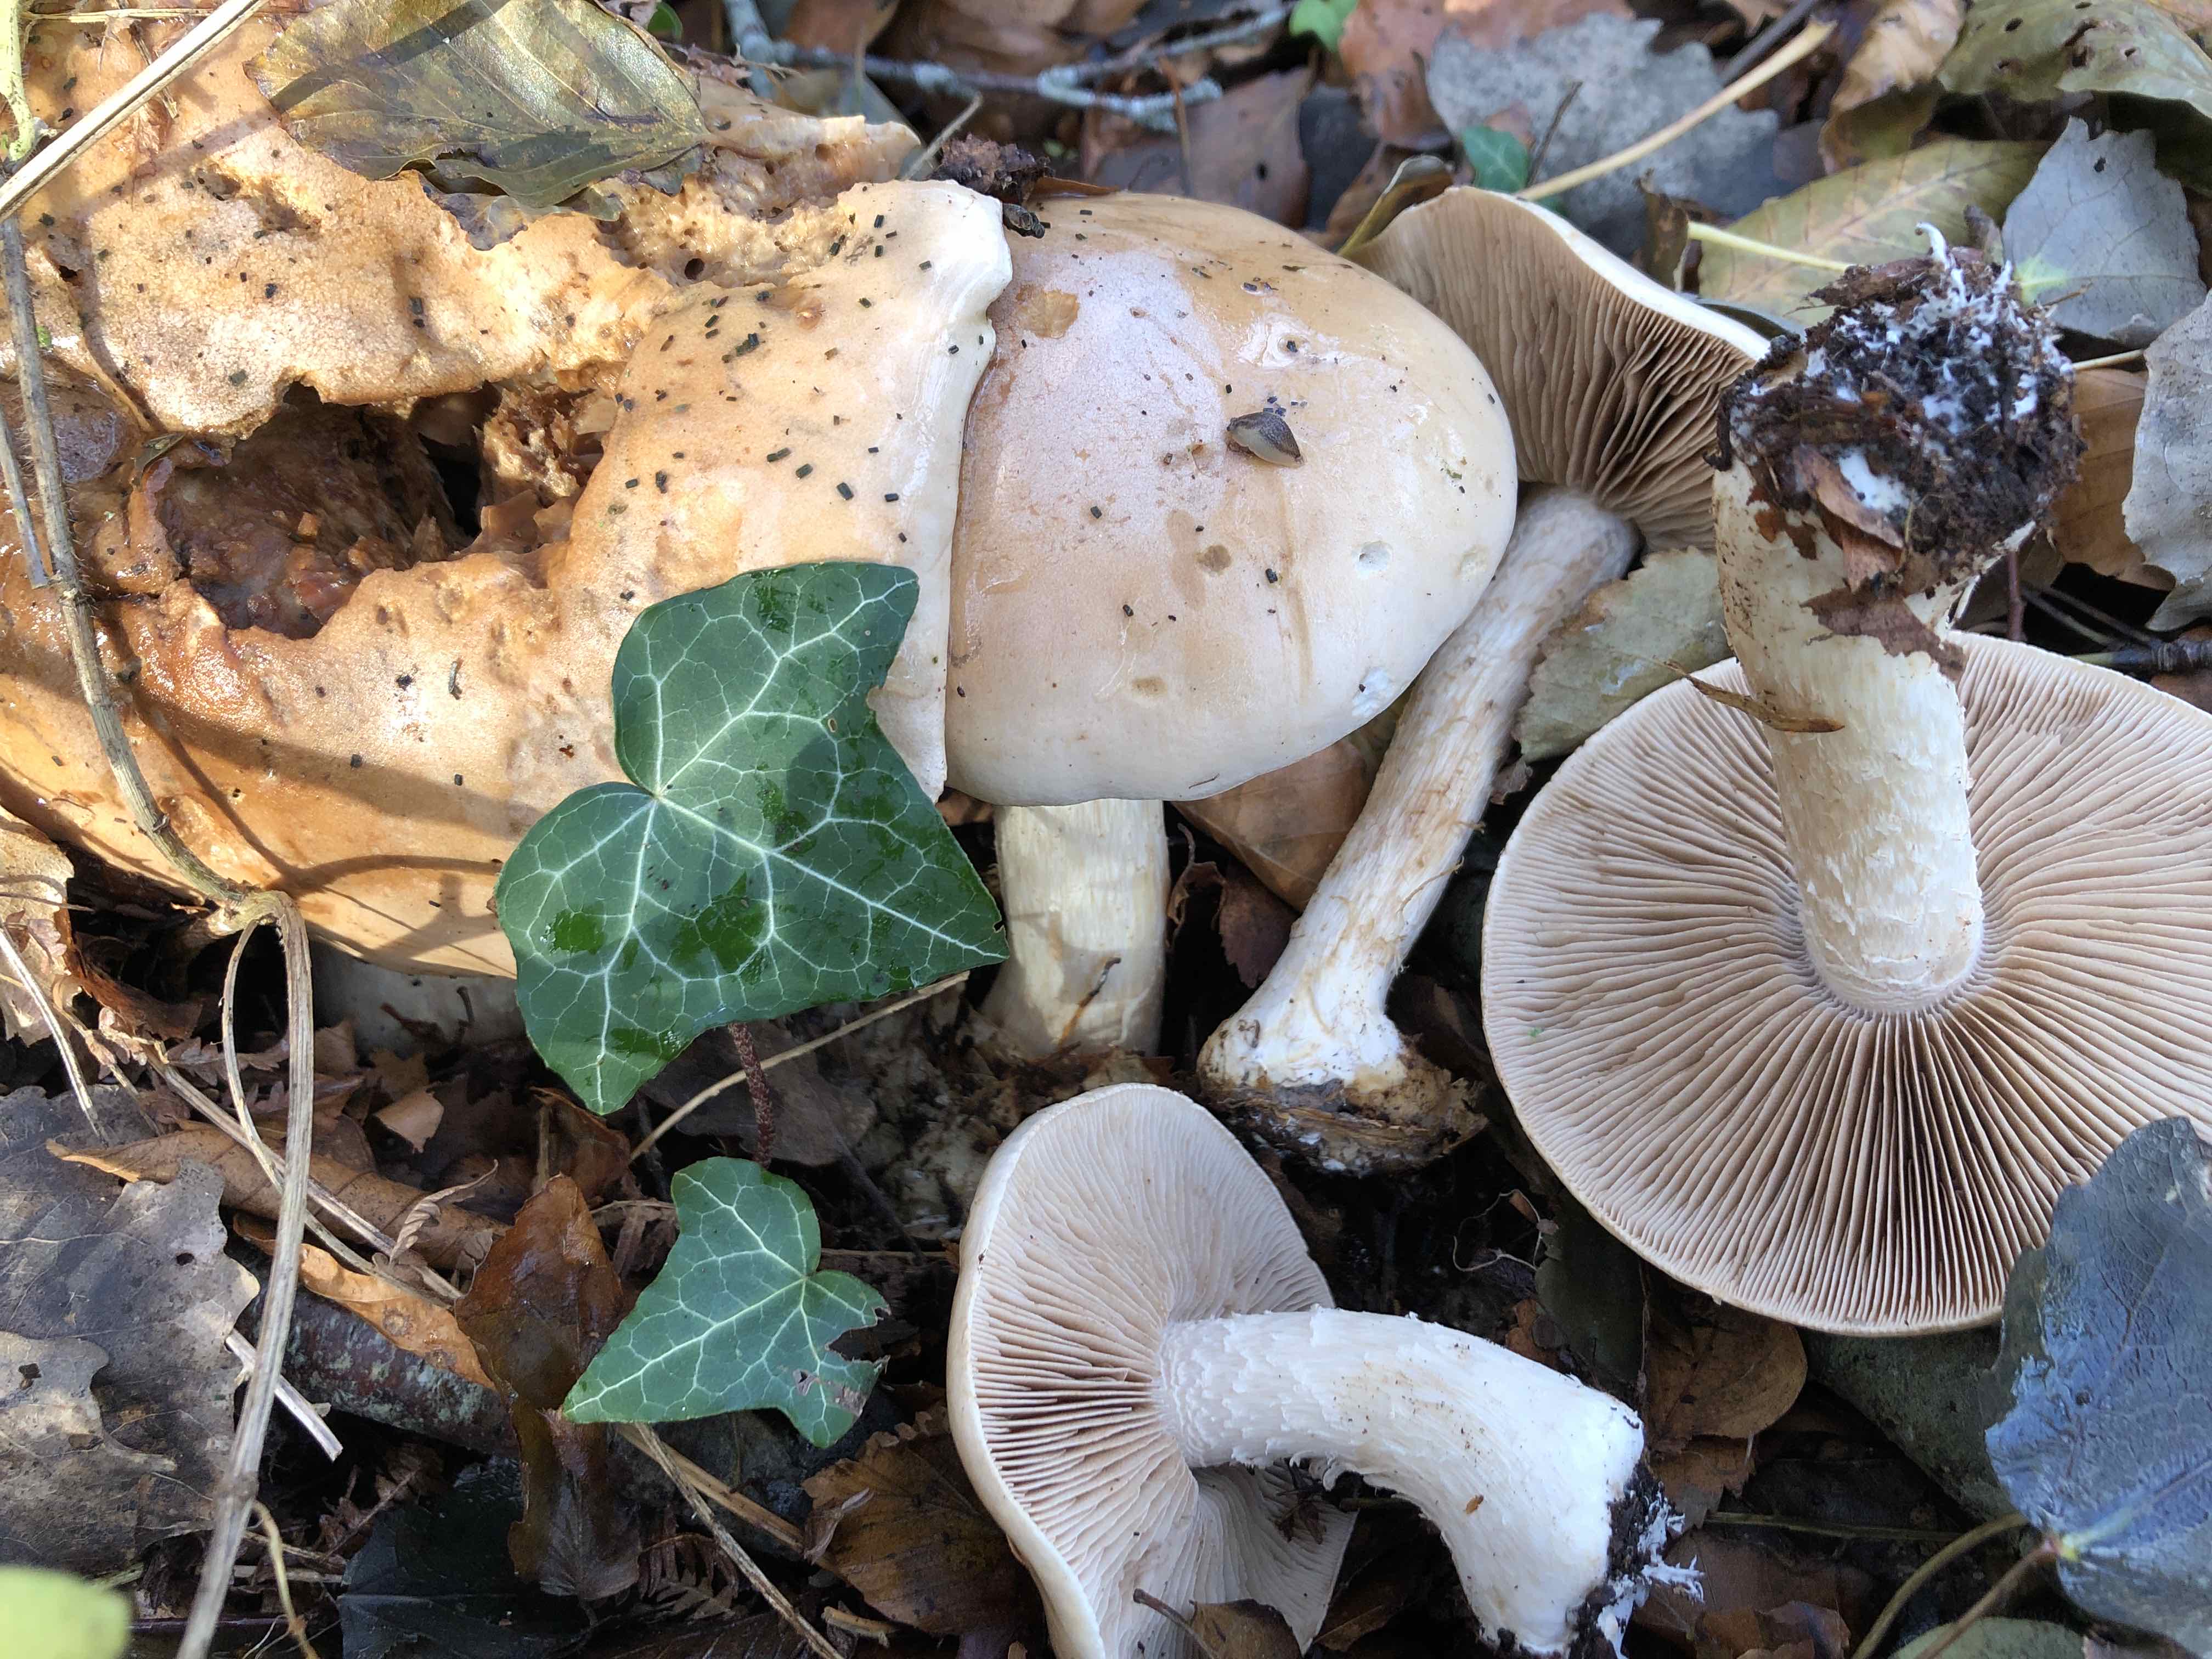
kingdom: Fungi
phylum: Basidiomycota
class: Agaricomycetes
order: Agaricales
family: Hymenogastraceae
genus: Hebeloma
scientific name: Hebeloma sinapizans
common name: ræddike-tåreblad
